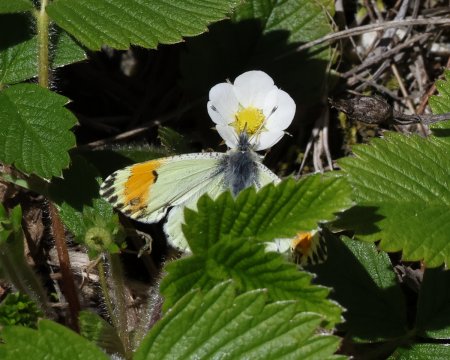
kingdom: Animalia
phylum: Arthropoda
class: Insecta
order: Lepidoptera
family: Pieridae
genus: Anthocharis
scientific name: Anthocharis julia
